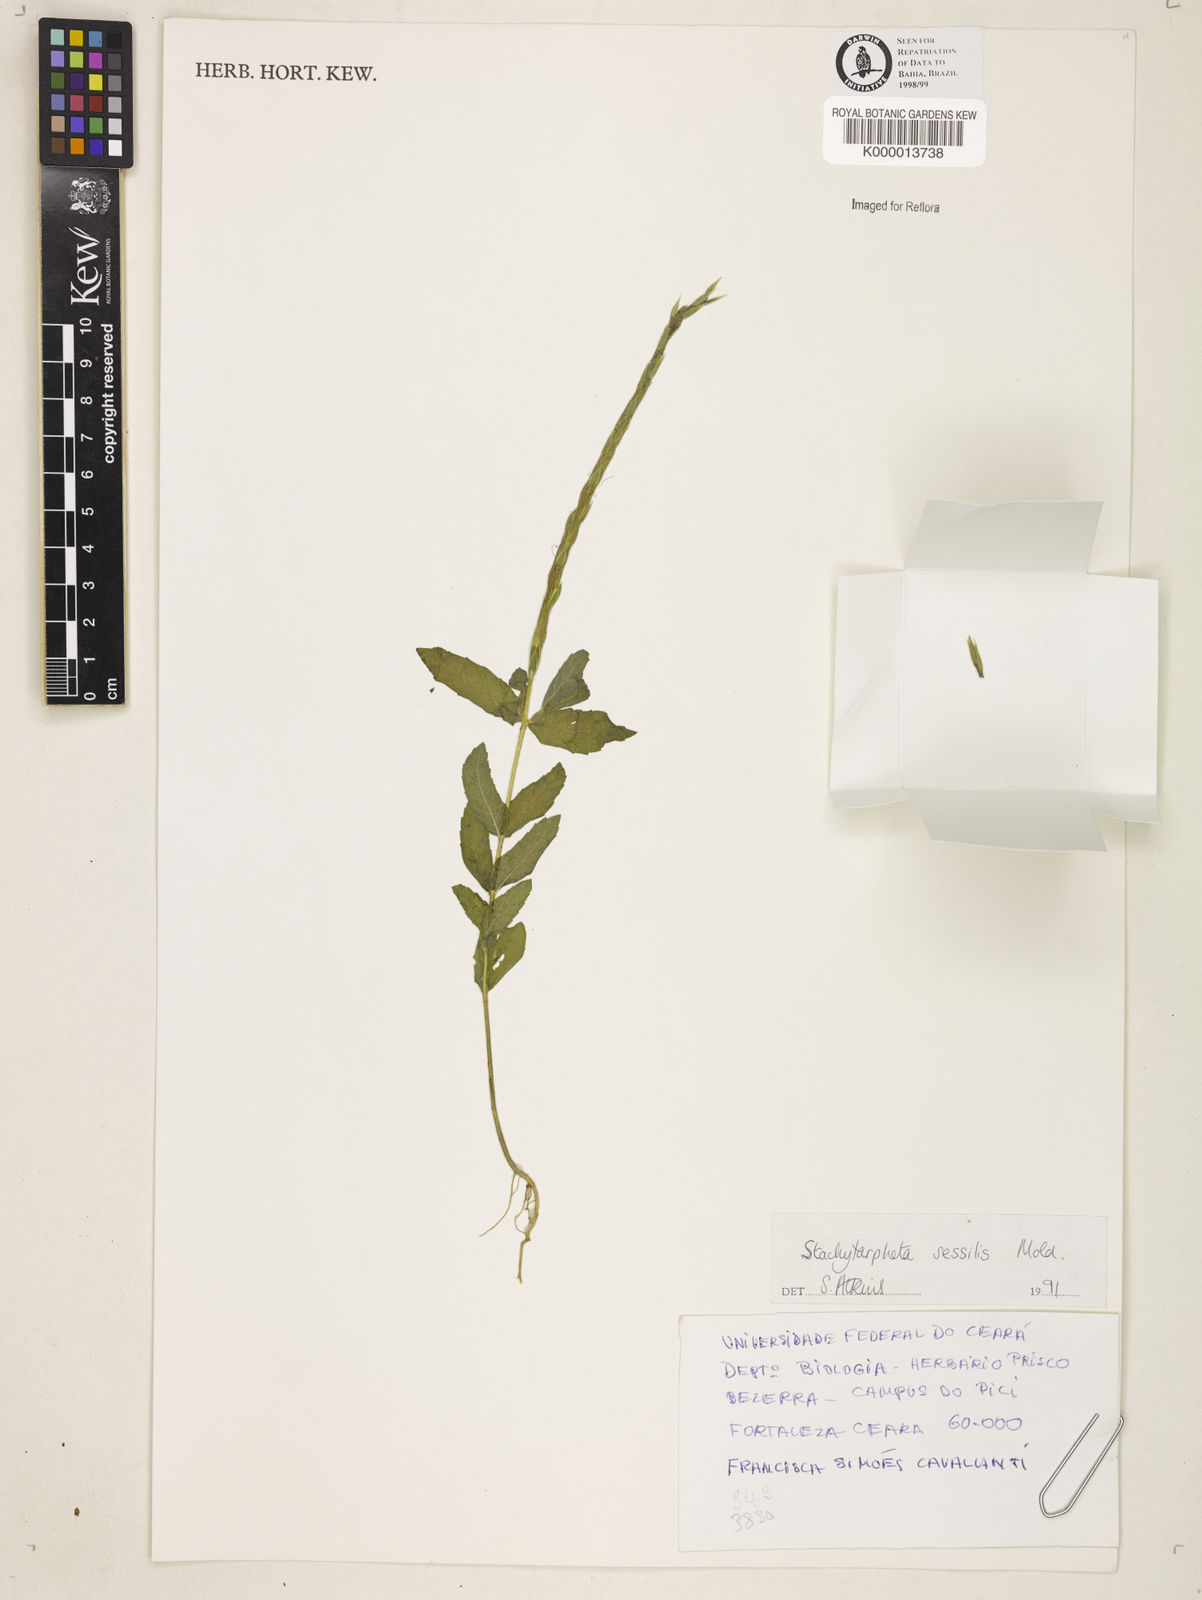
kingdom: Plantae
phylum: Tracheophyta
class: Magnoliopsida
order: Lamiales
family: Verbenaceae
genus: Stachytarpheta
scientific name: Stachytarpheta sessilis
